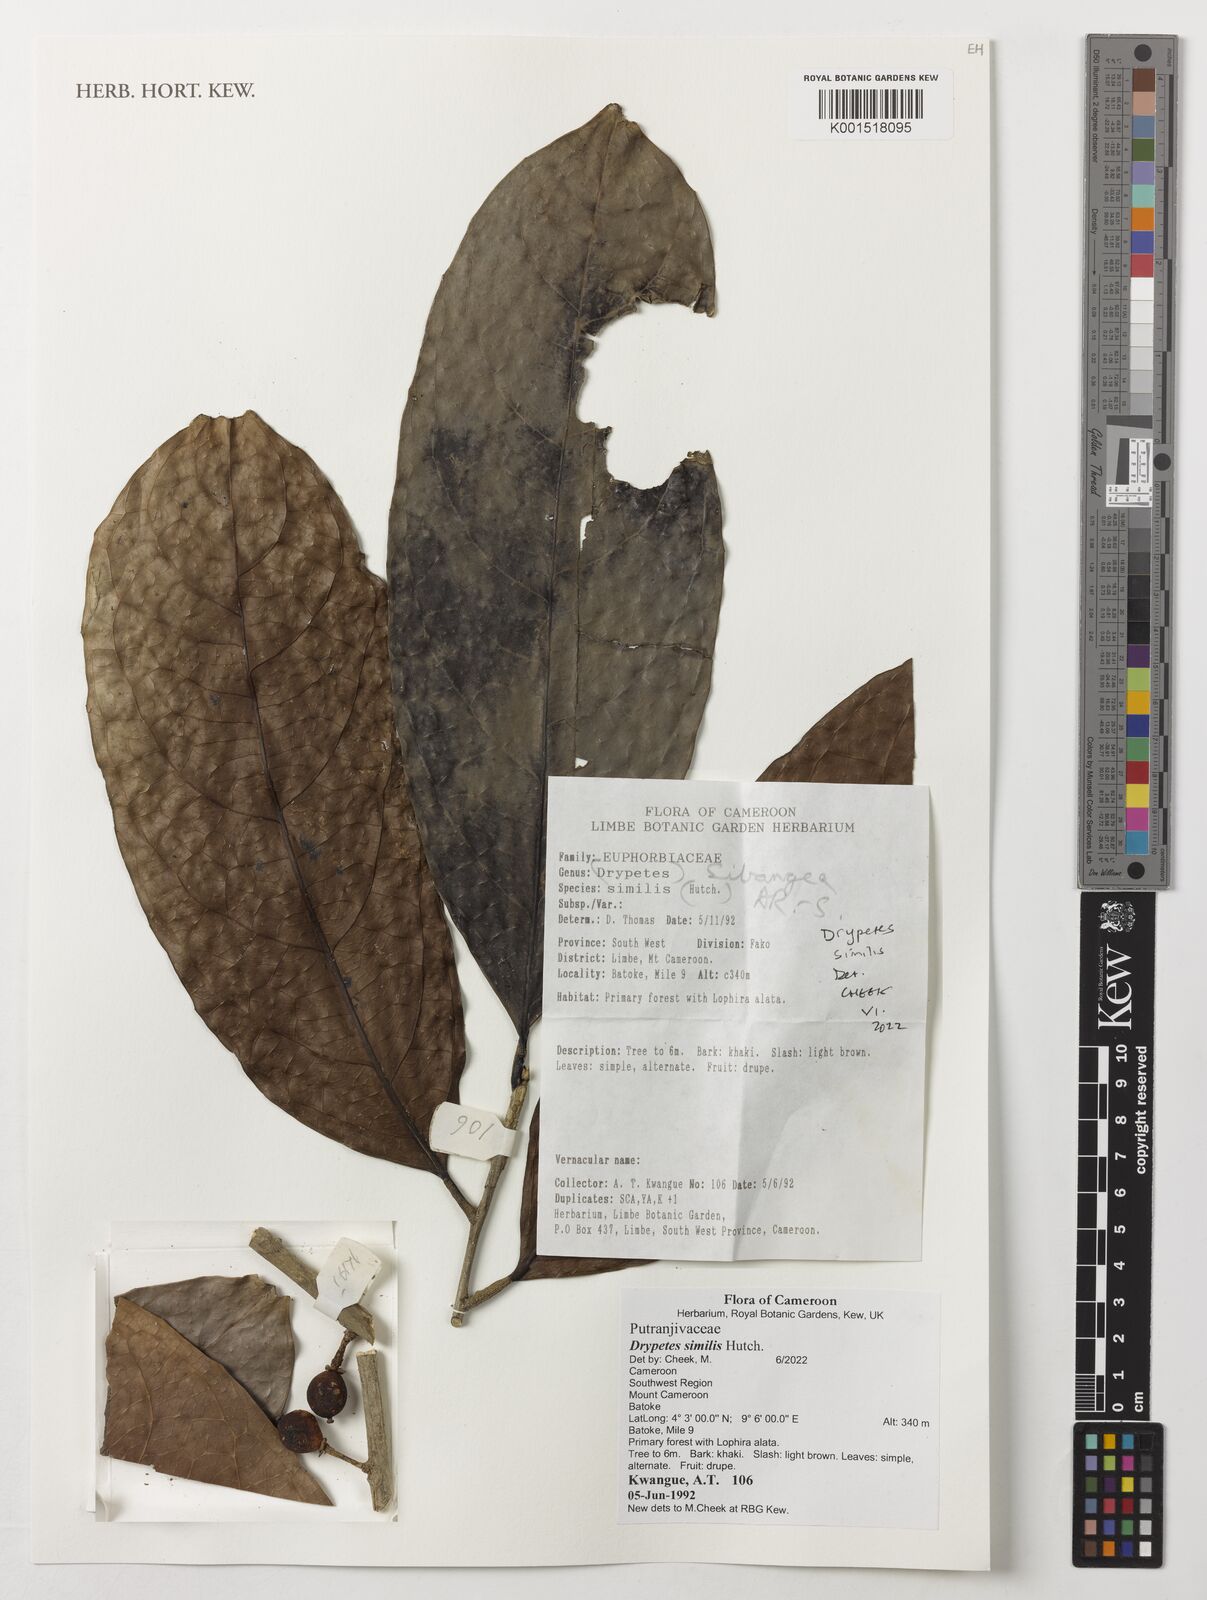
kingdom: Plantae
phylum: Tracheophyta
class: Magnoliopsida
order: Malpighiales
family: Putranjivaceae
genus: Drypetes
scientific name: Drypetes similis
